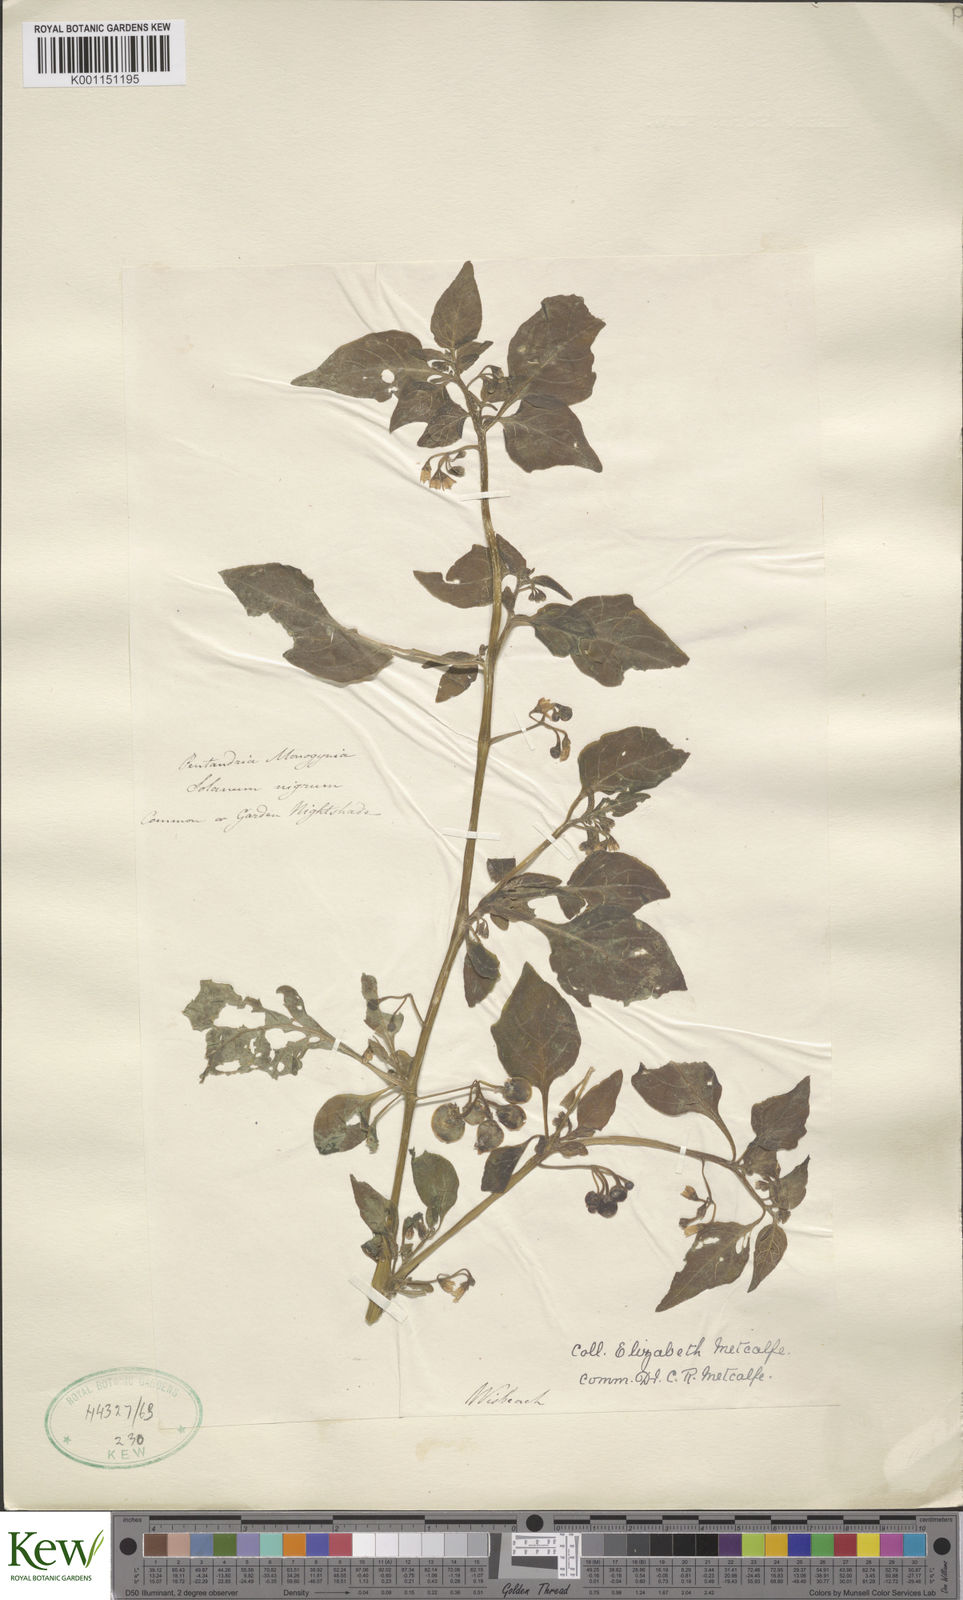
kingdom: Plantae
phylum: Tracheophyta
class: Magnoliopsida
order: Solanales
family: Solanaceae
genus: Solanum
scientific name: Solanum nigrum
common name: Black nightshade
